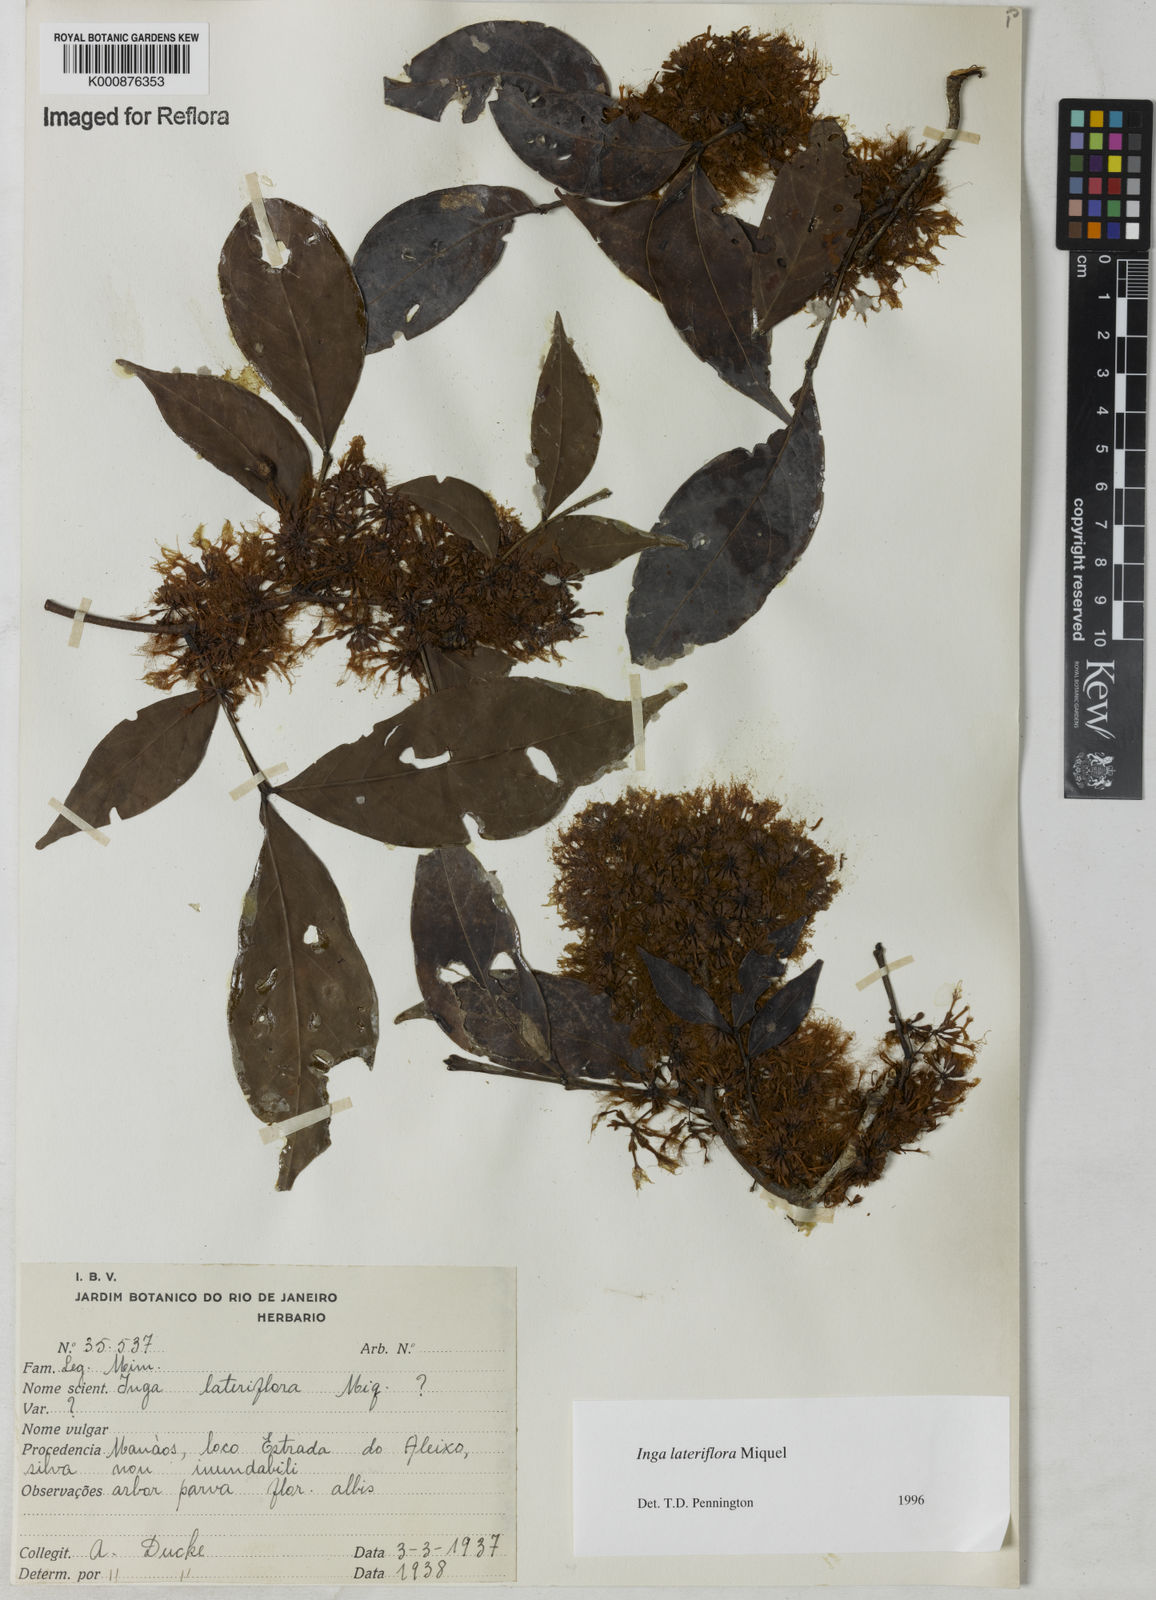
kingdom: Plantae
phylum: Tracheophyta
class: Magnoliopsida
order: Fabales
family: Fabaceae
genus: Inga
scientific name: Inga lateriflora
